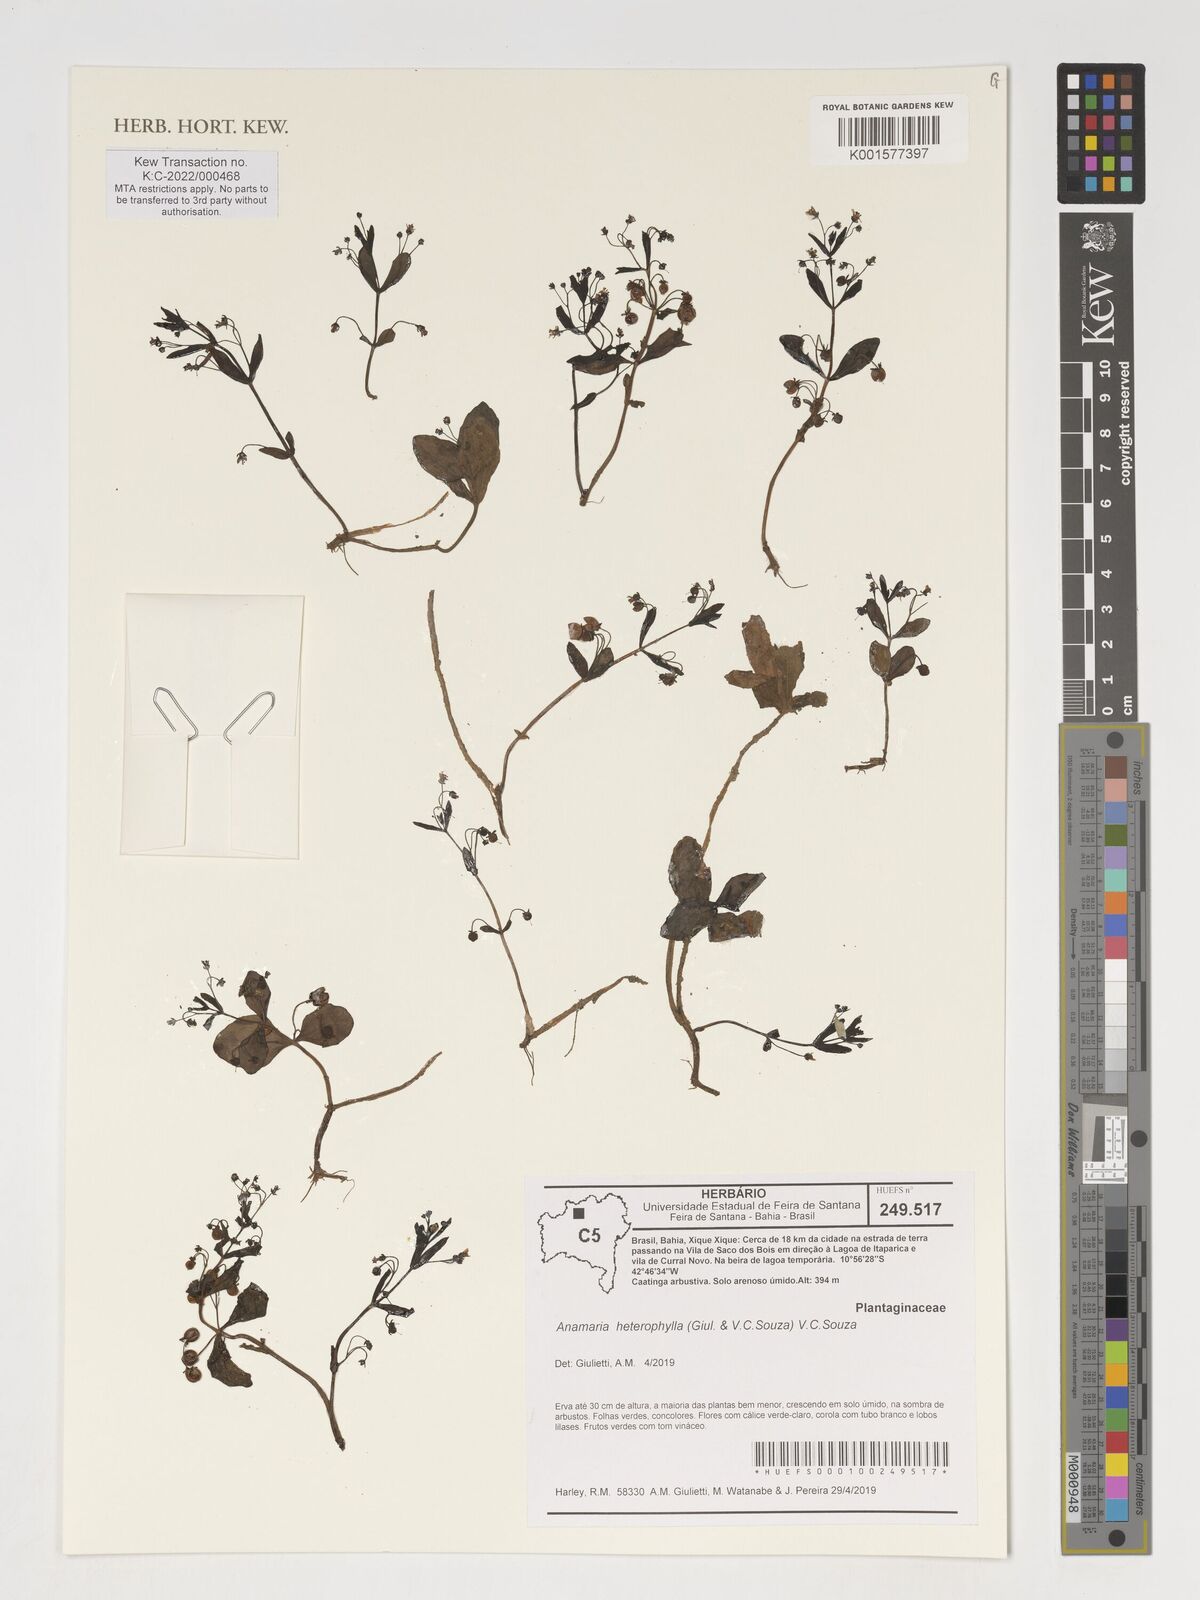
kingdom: Plantae
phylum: Tracheophyta
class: Magnoliopsida
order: Lamiales
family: Plantaginaceae
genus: Anamaria
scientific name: Anamaria heterophylla
